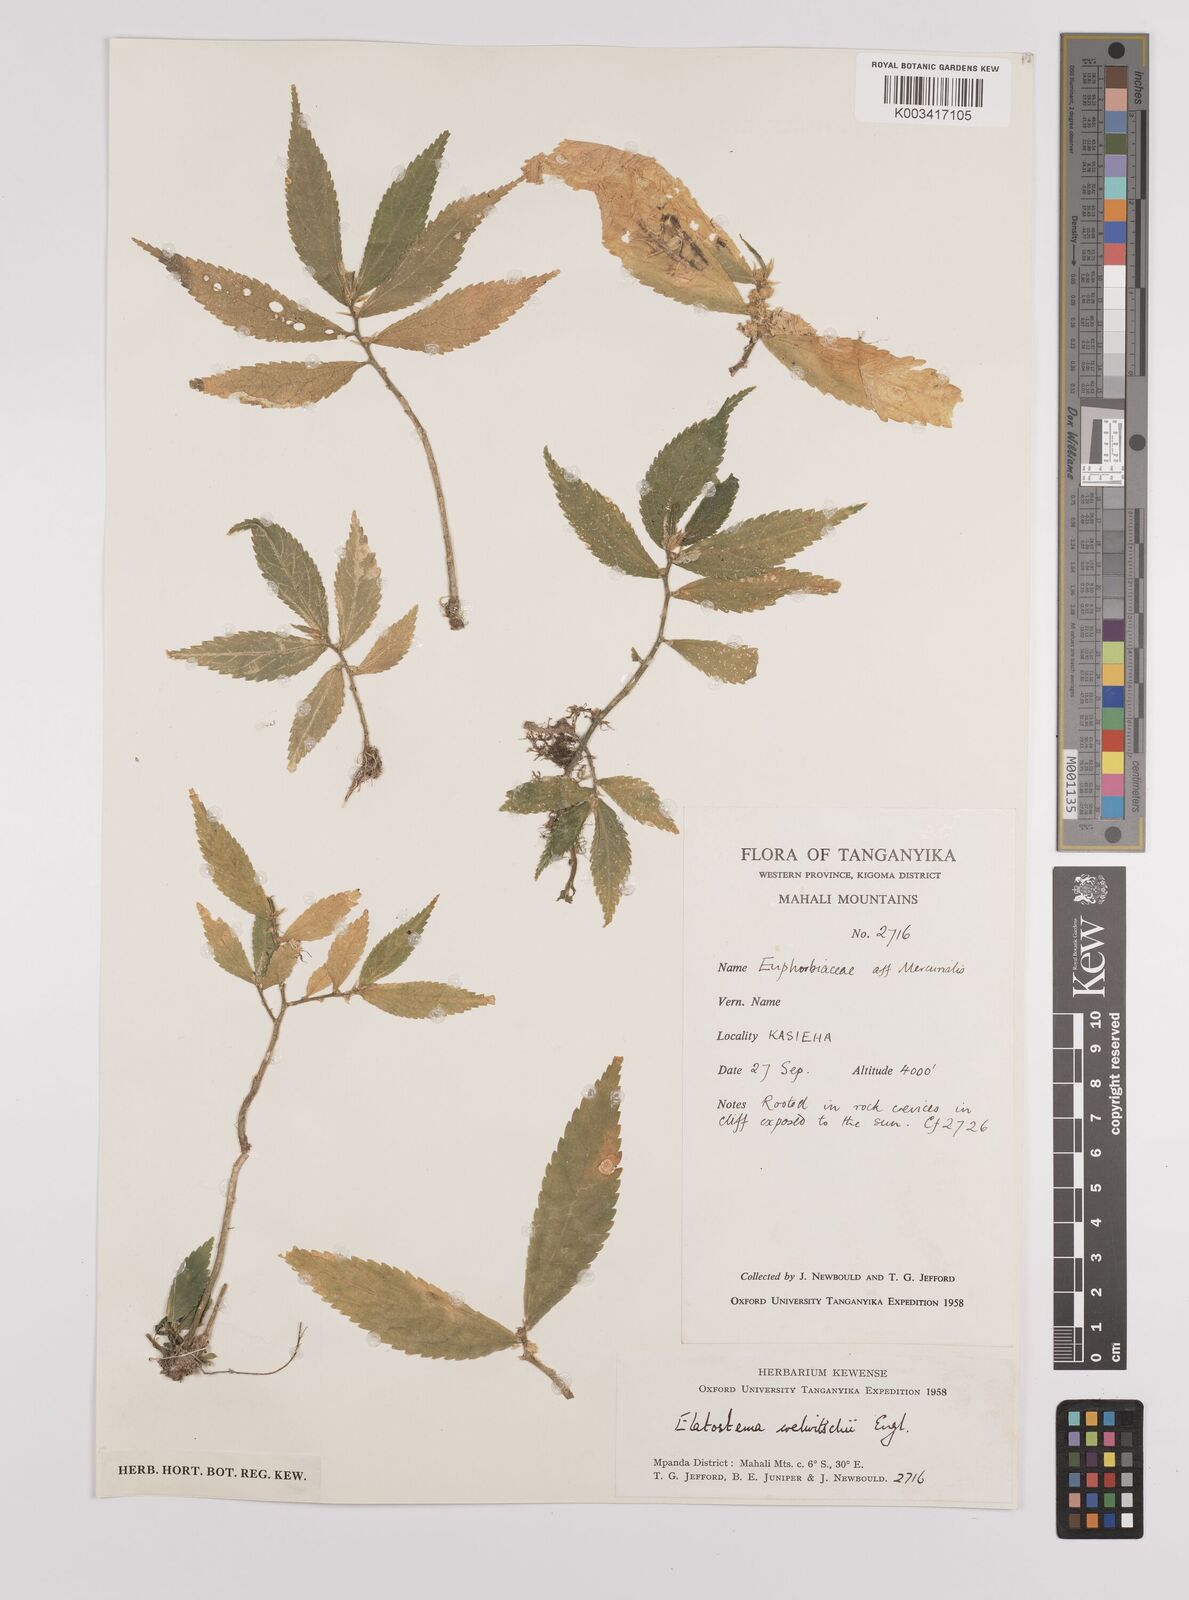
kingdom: Plantae
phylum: Tracheophyta
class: Magnoliopsida
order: Rosales
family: Urticaceae
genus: Elatostema
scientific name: Elatostema welwitschii
